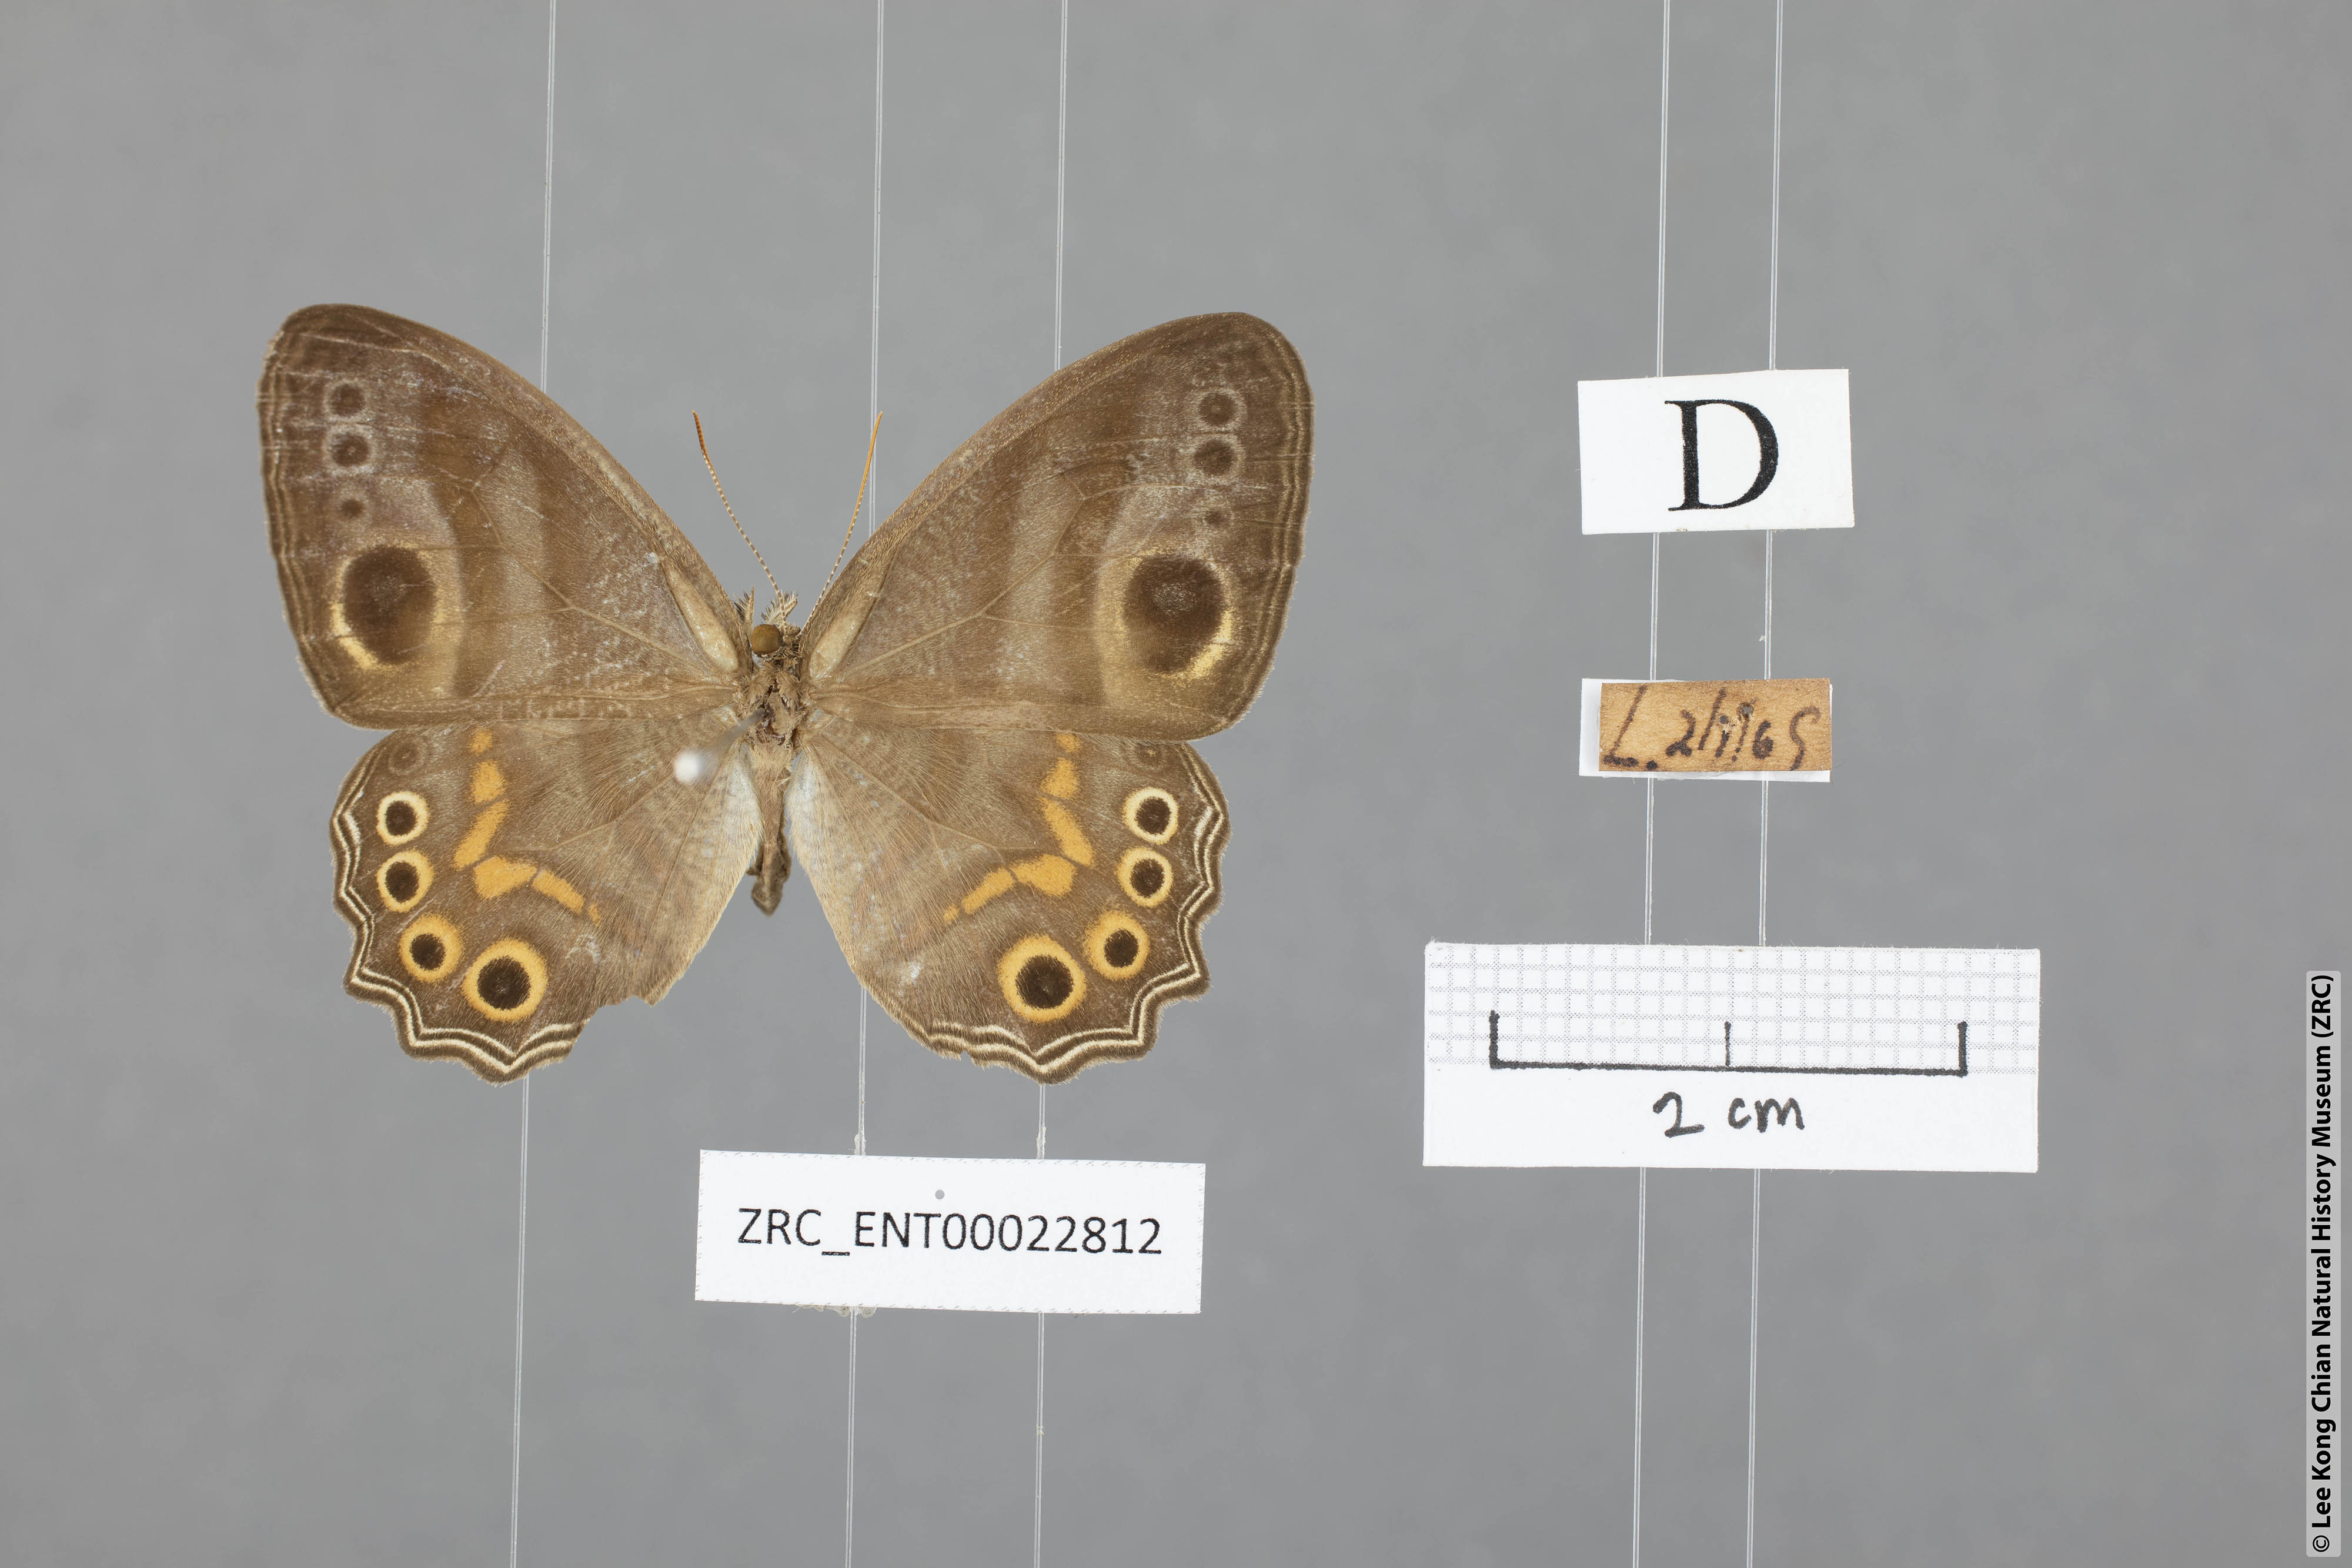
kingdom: Animalia
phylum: Arthropoda
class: Insecta
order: Lepidoptera
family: Nymphalidae
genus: Erites
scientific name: Erites elegans
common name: Elegent cyclops
